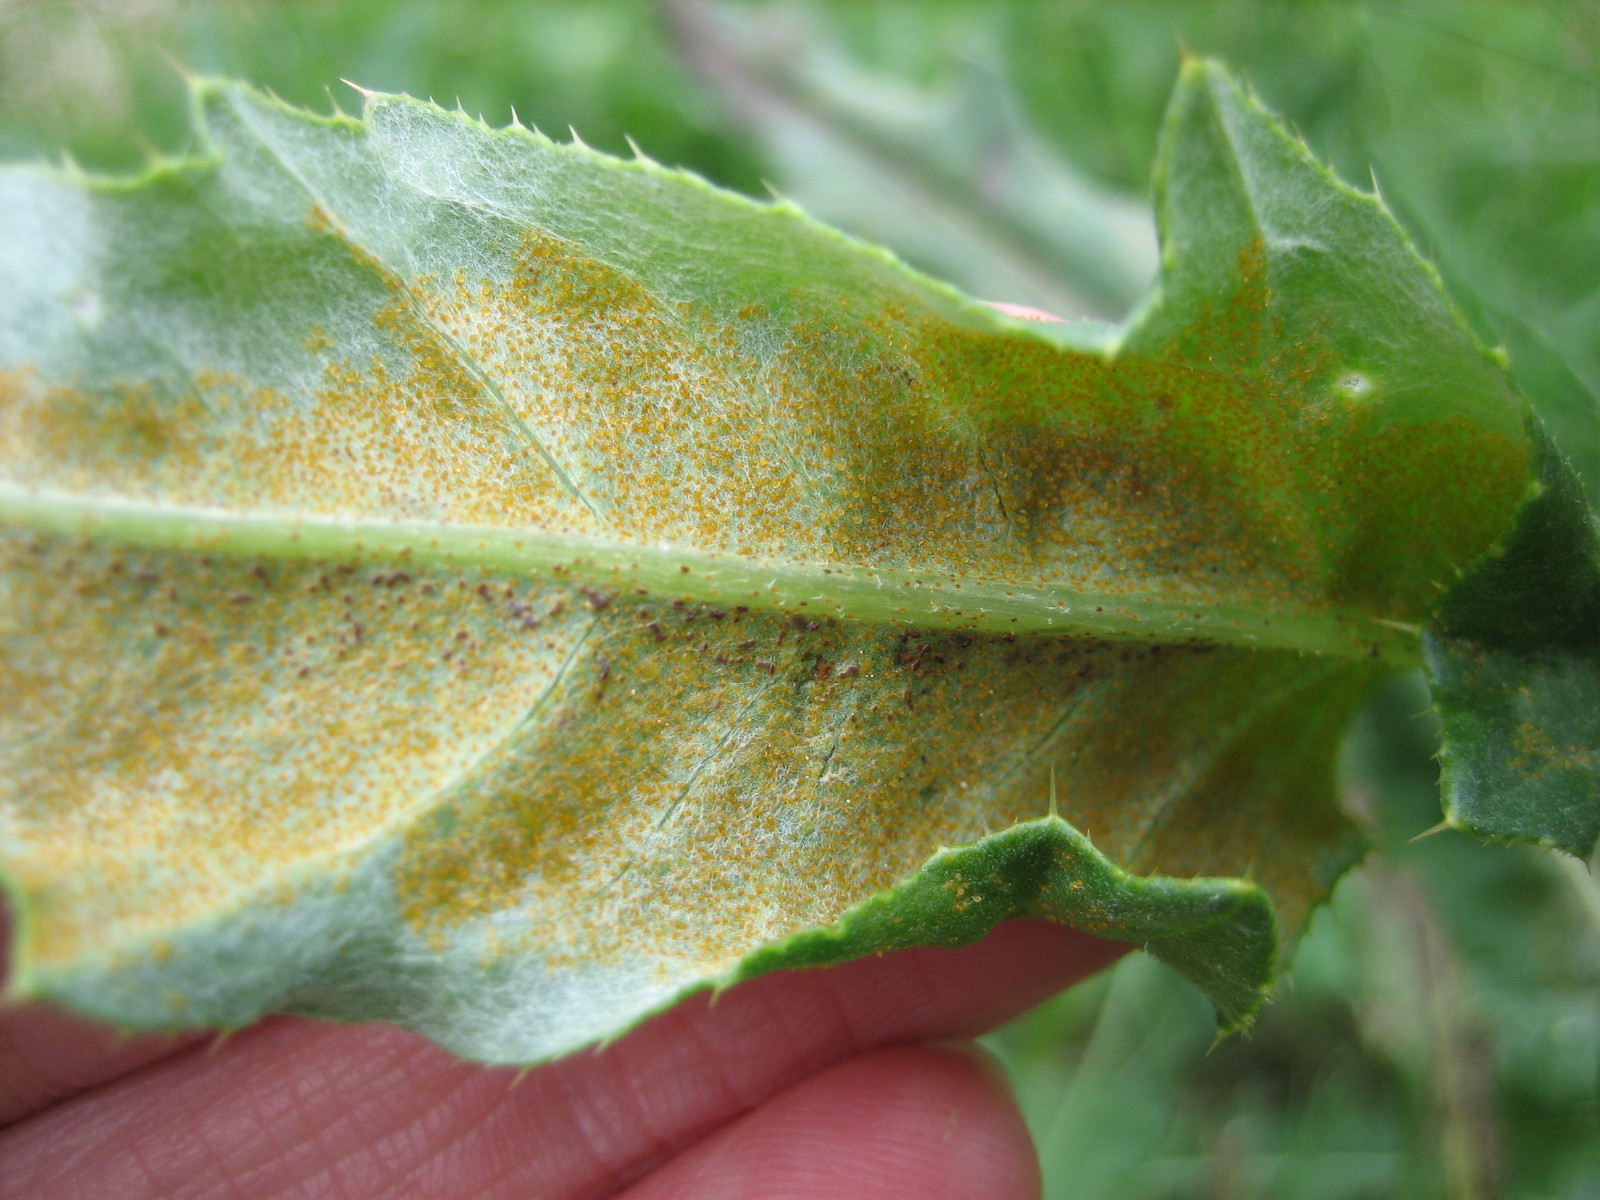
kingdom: Fungi
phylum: Basidiomycota
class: Pucciniomycetes
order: Pucciniales
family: Pucciniaceae
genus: Puccinia
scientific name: Puccinia suaveolens
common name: tidsel-tvecellerust
